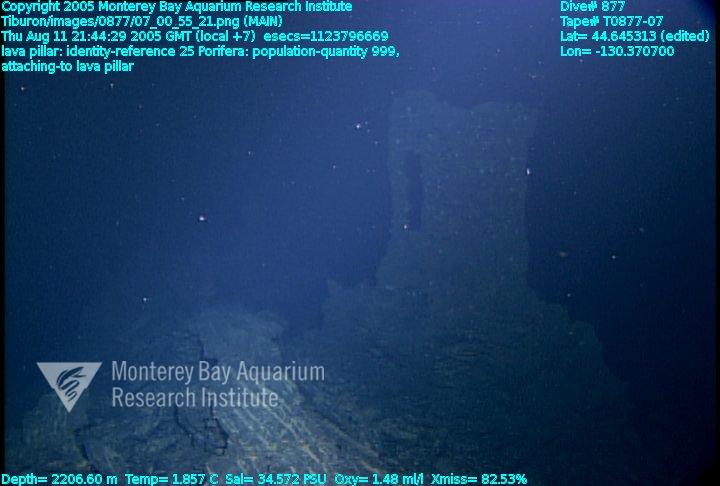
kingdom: Animalia
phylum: Porifera
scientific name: Porifera
